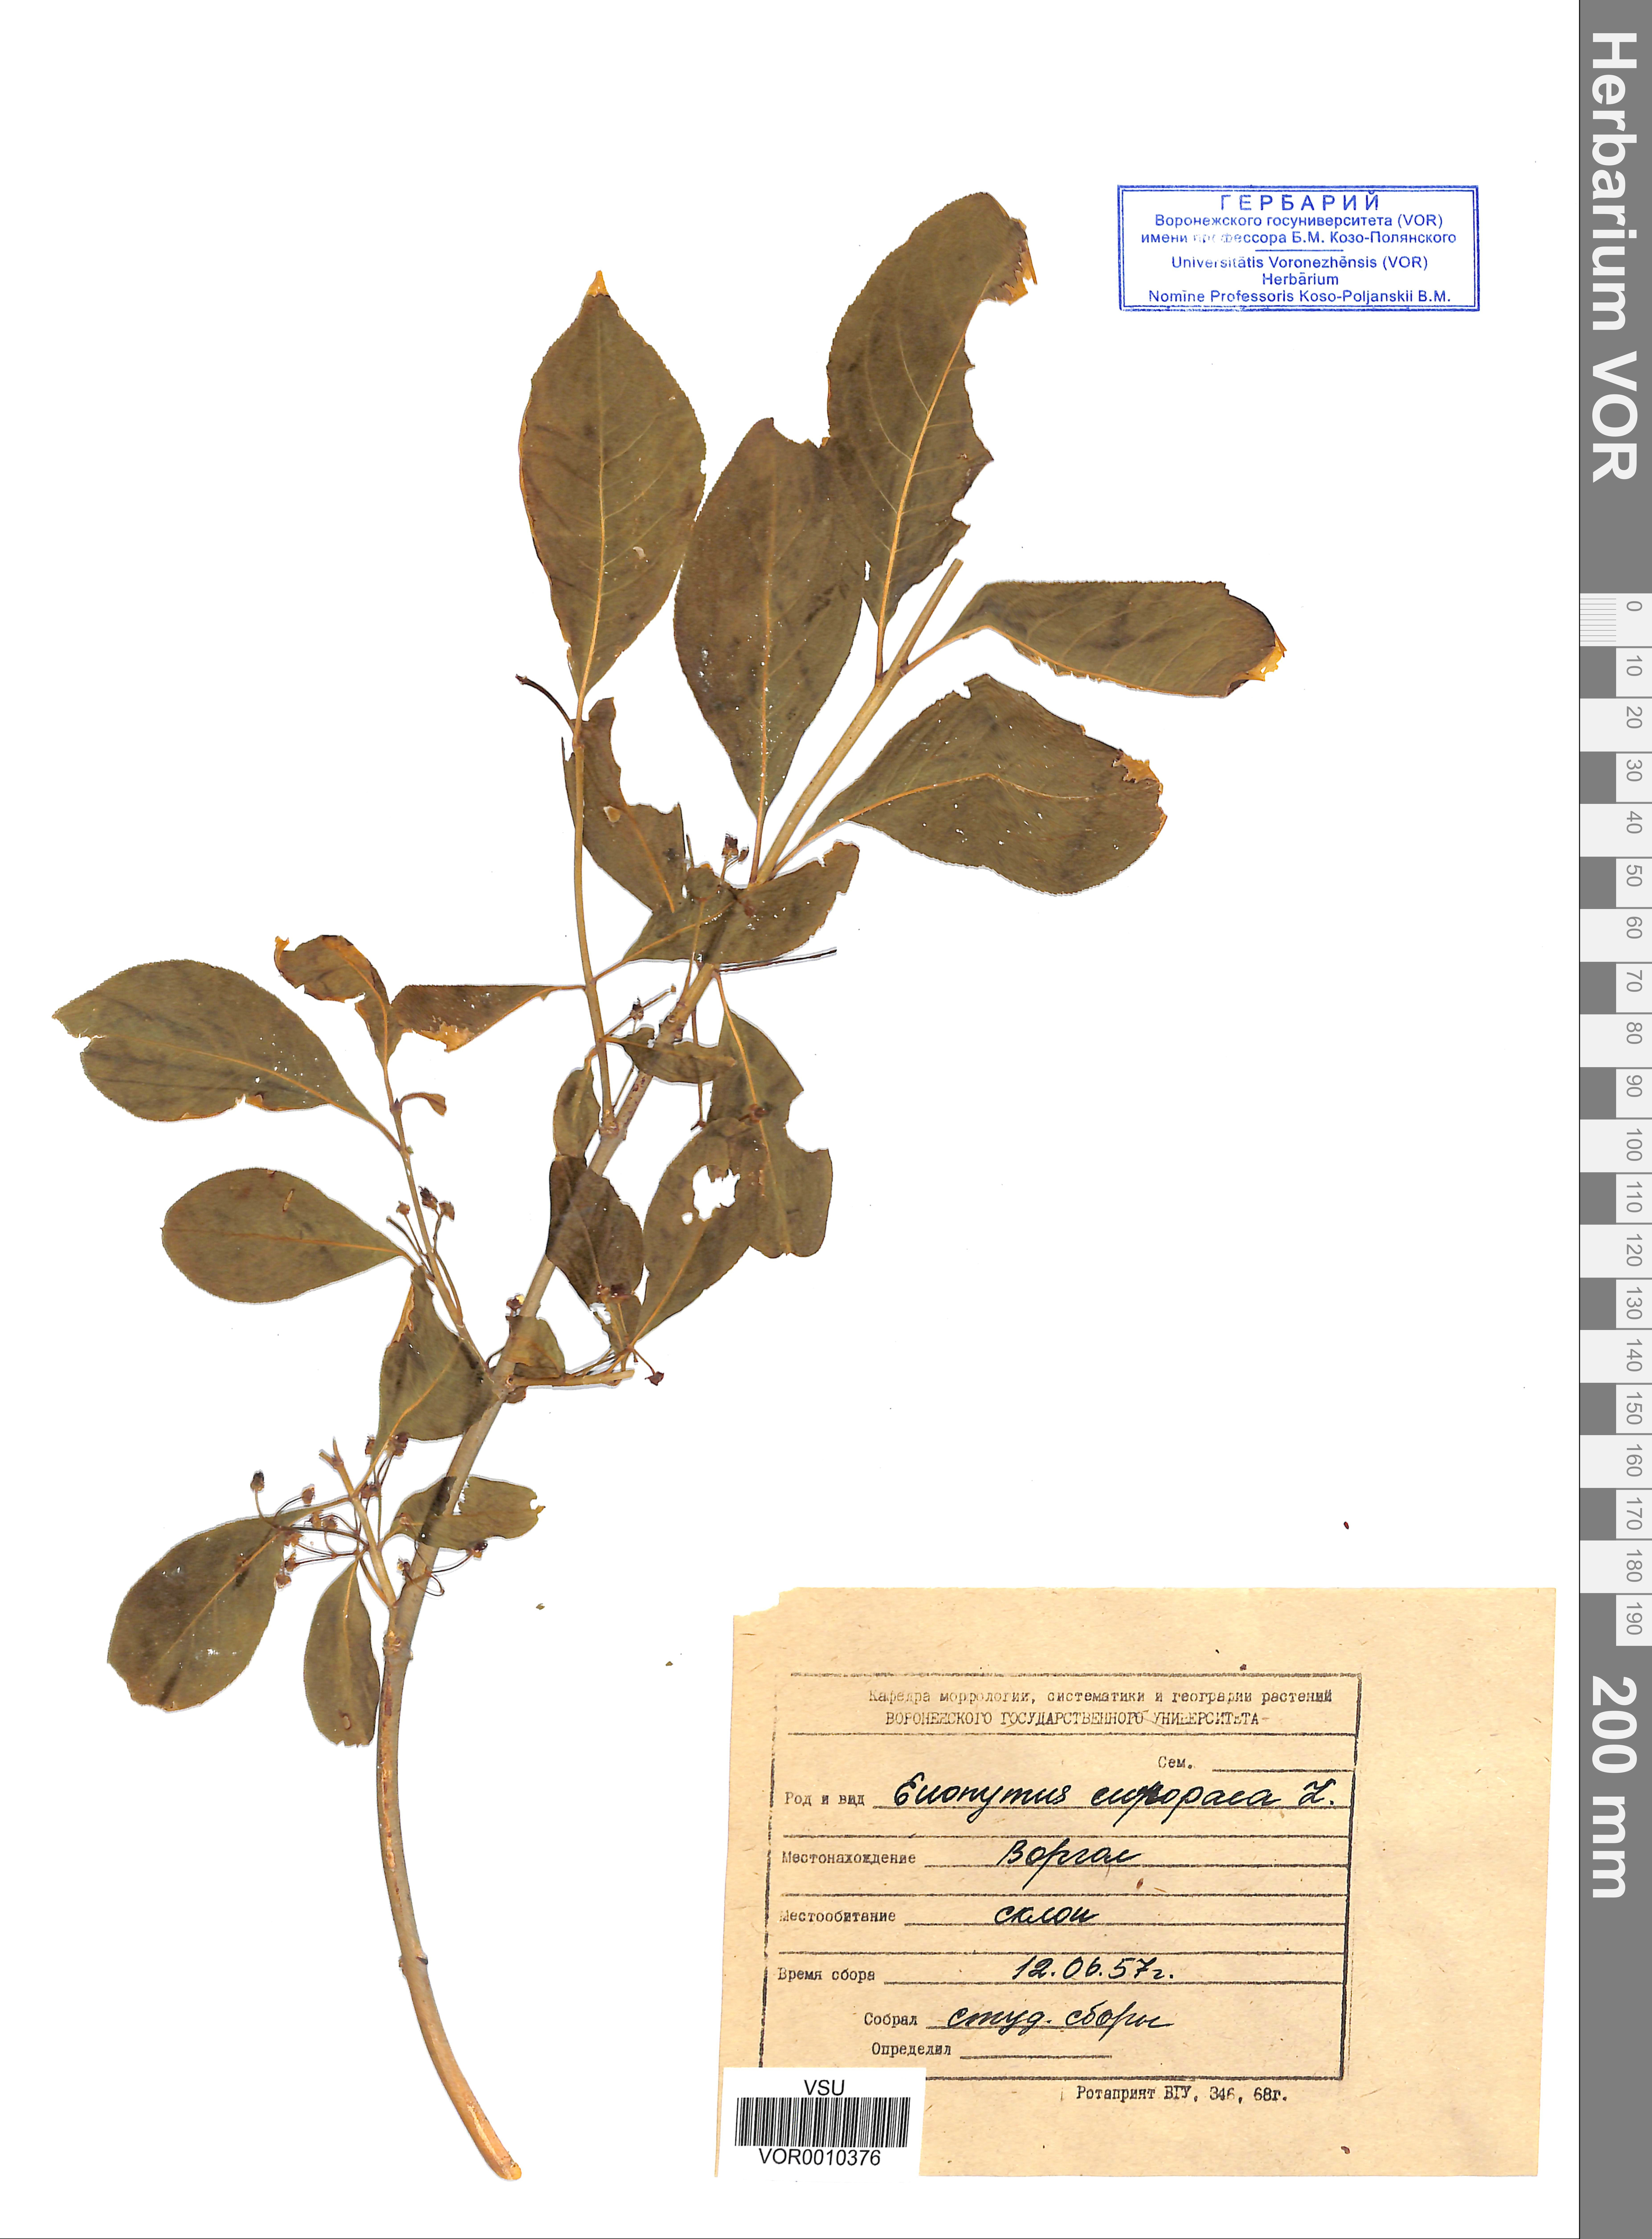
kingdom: Plantae
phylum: Tracheophyta
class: Magnoliopsida
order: Celastrales
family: Celastraceae
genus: Euonymus
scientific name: Euonymus europaeus
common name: Spindle
